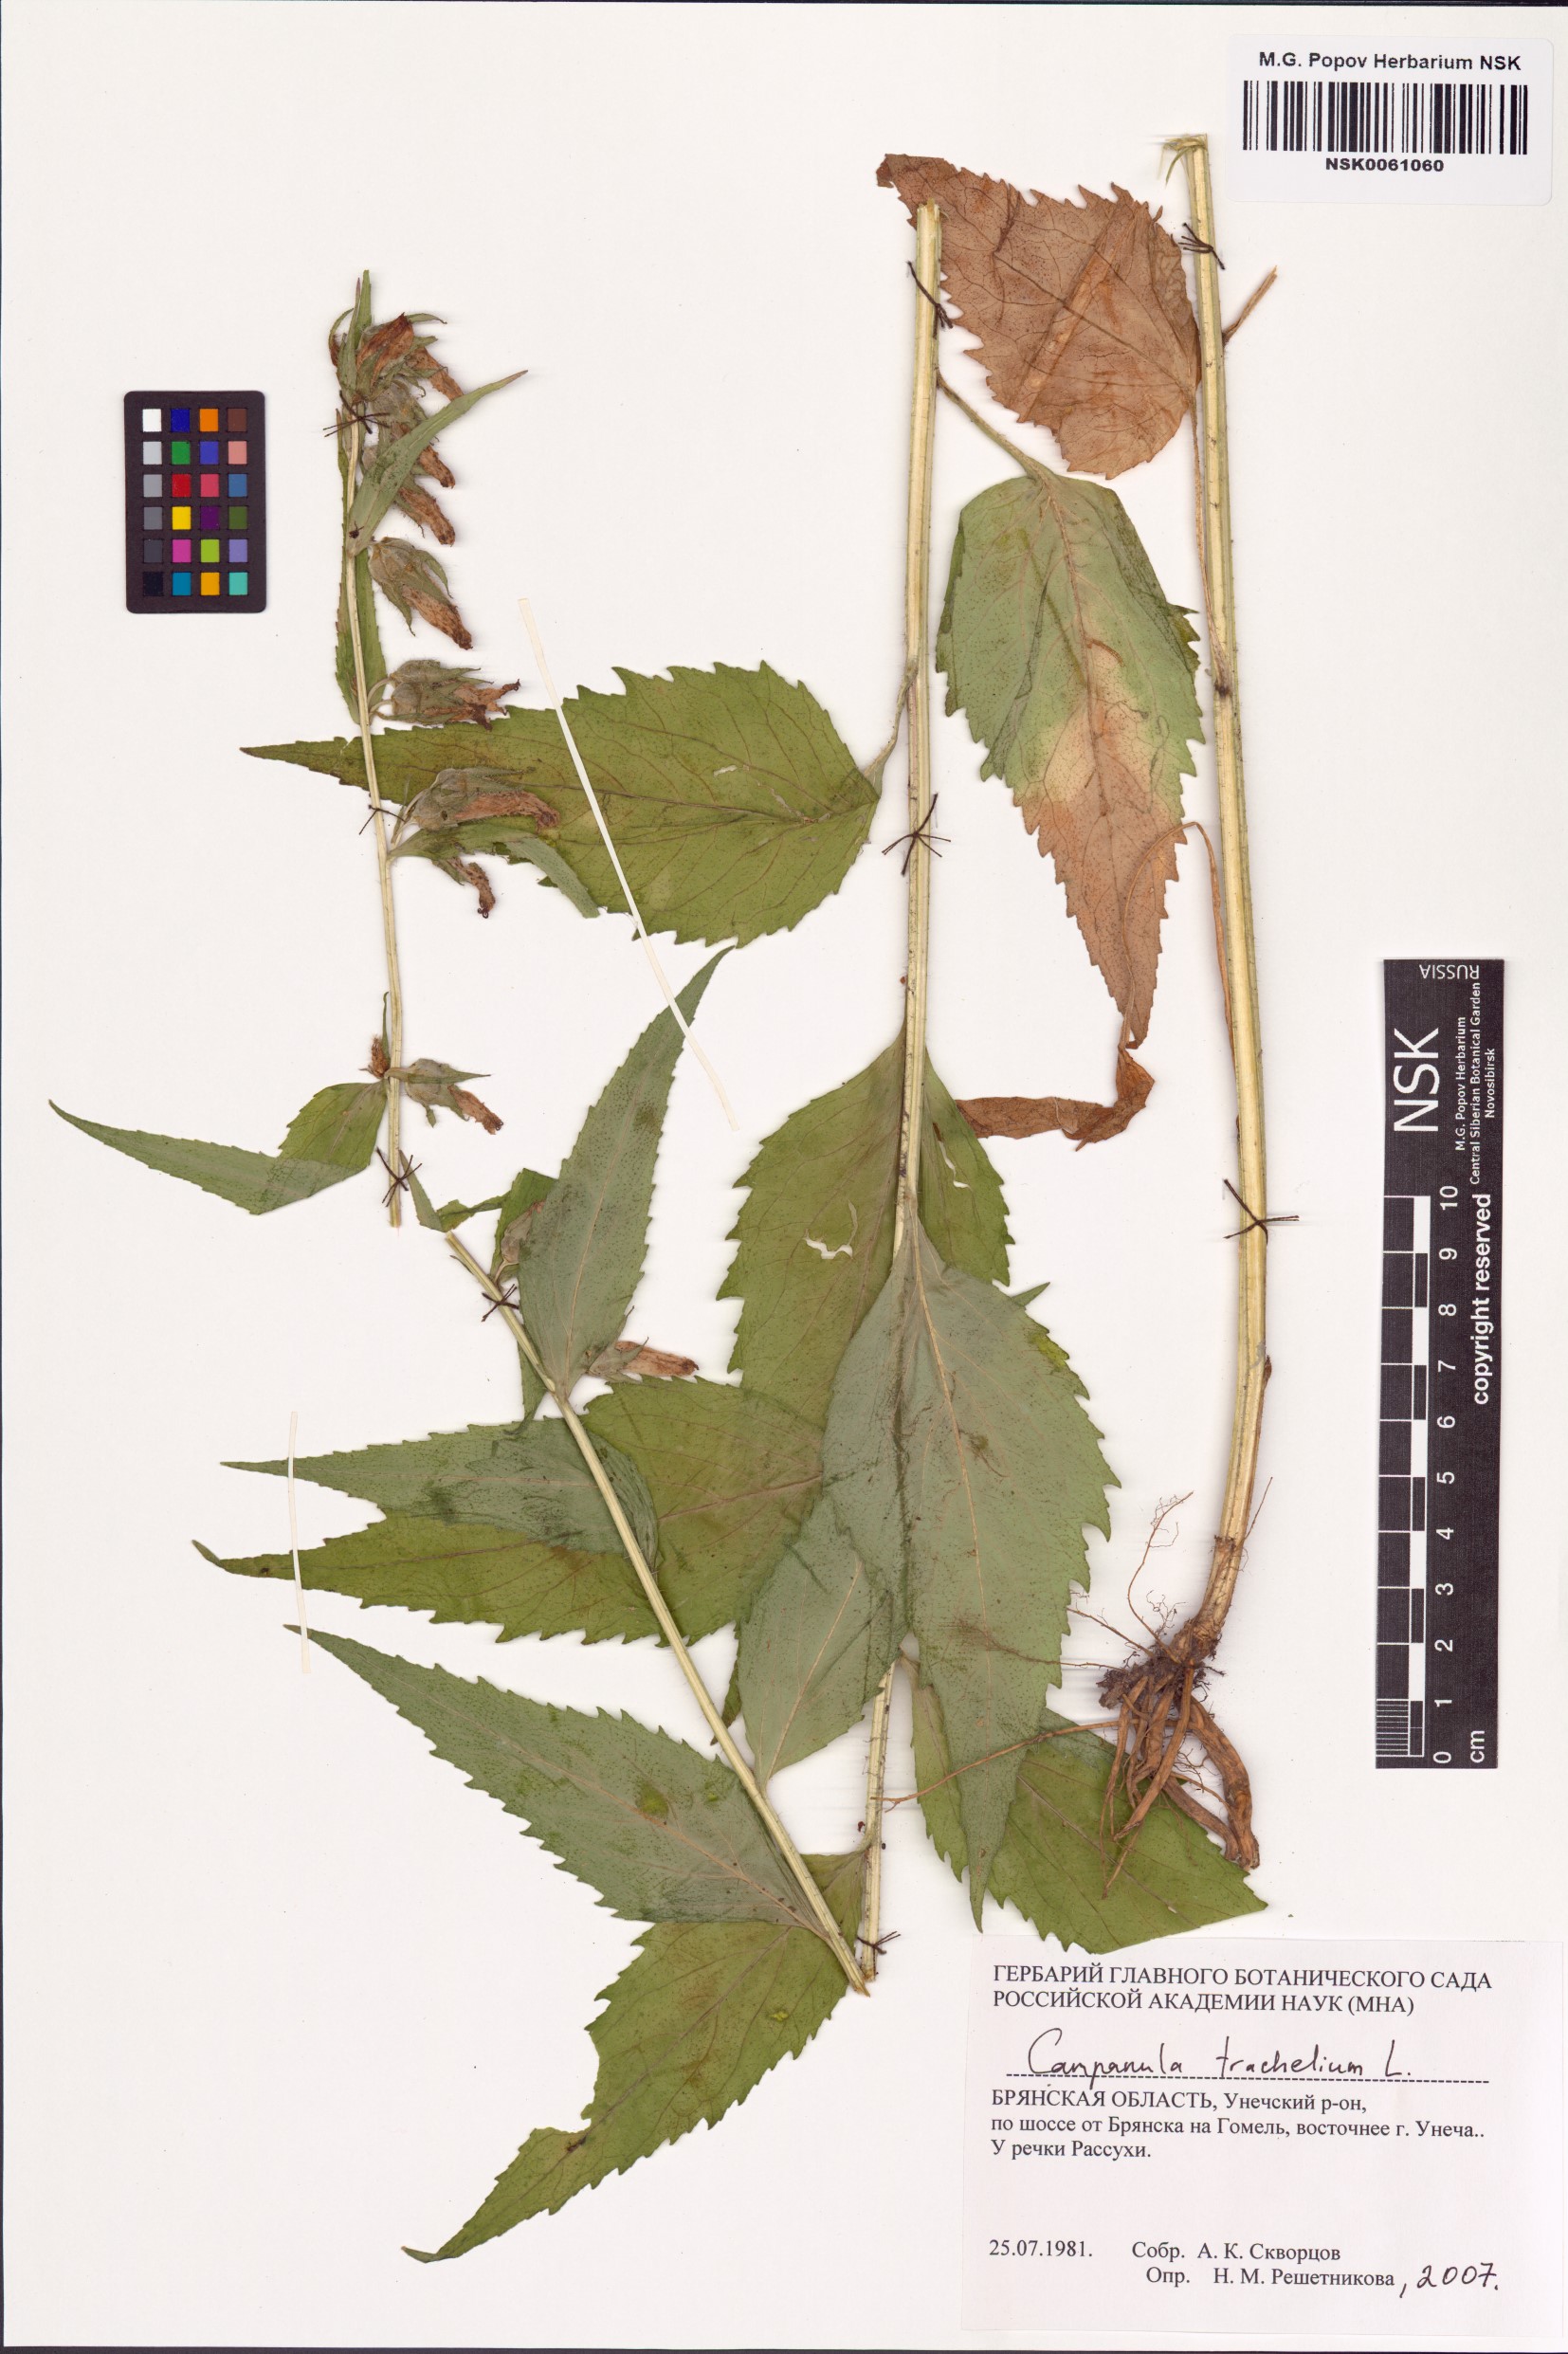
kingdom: Plantae
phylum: Tracheophyta
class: Magnoliopsida
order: Asterales
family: Campanulaceae
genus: Campanula
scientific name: Campanula trachelium
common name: Nettle-leaved bellflower
